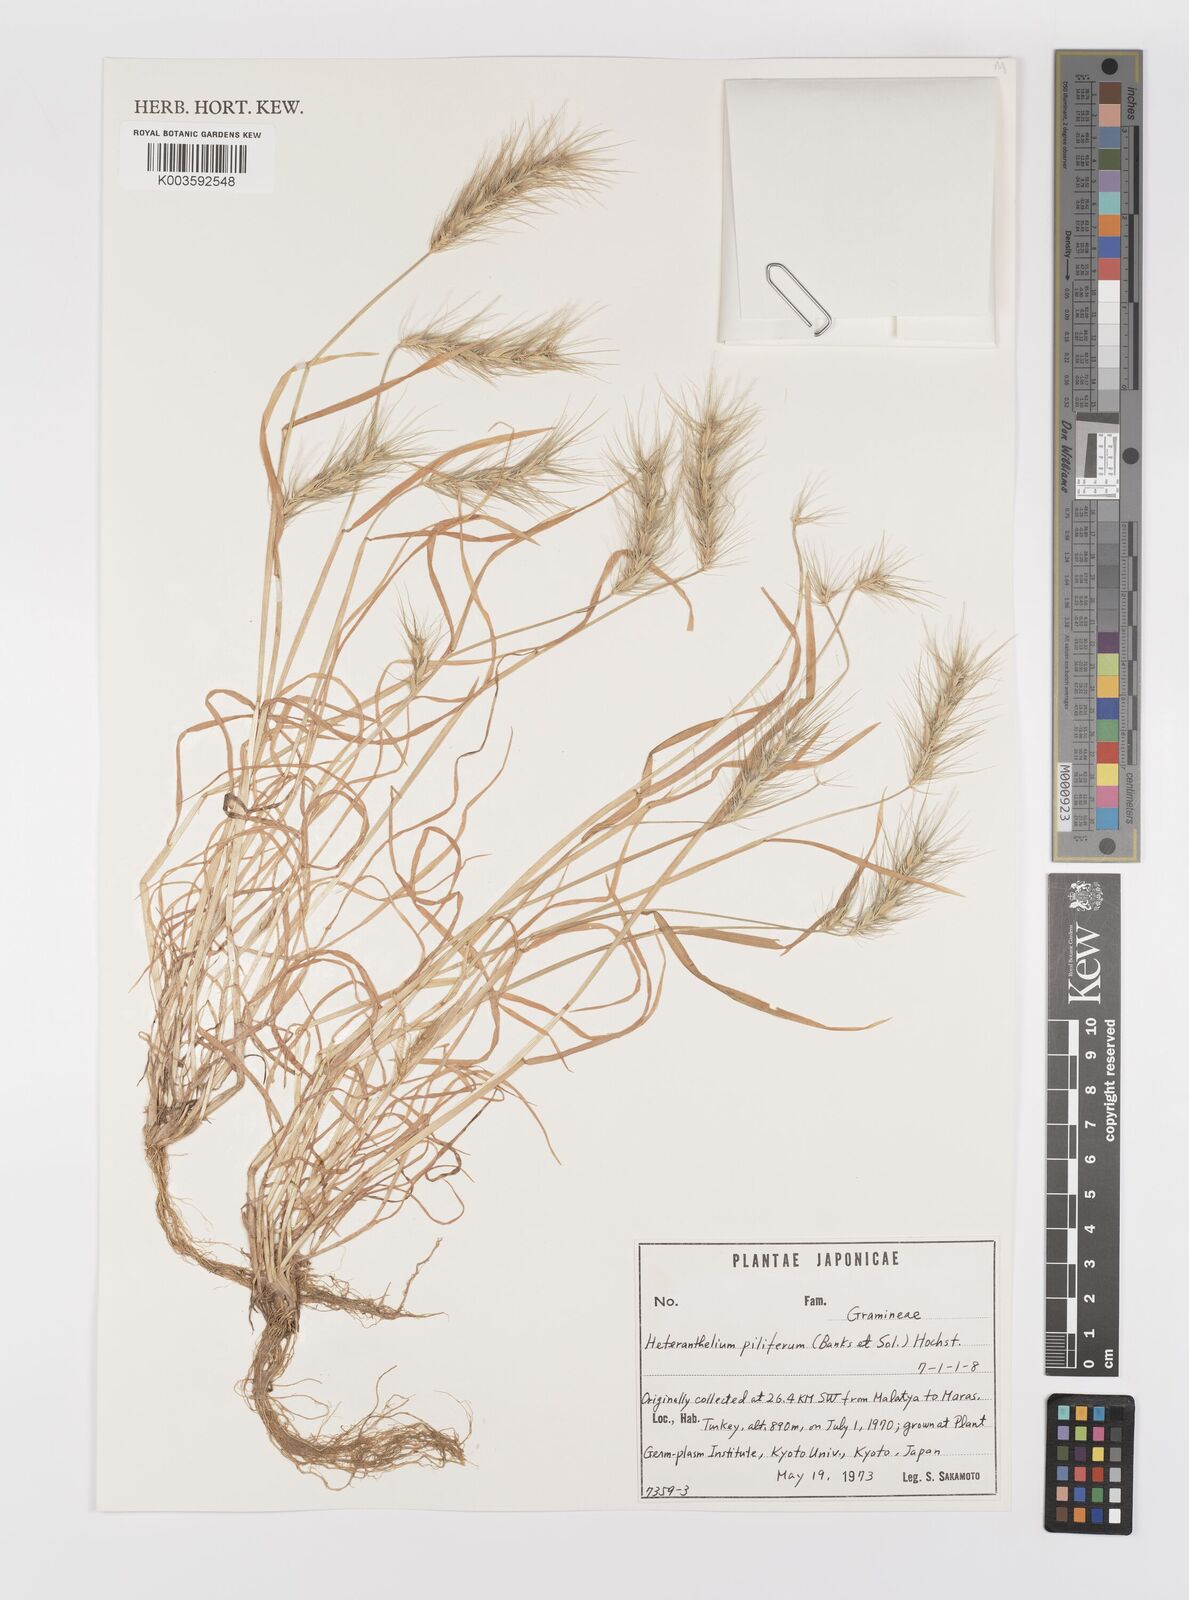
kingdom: Plantae
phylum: Tracheophyta
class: Liliopsida
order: Poales
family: Poaceae
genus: Heteranthelium
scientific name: Heteranthelium piliferum
